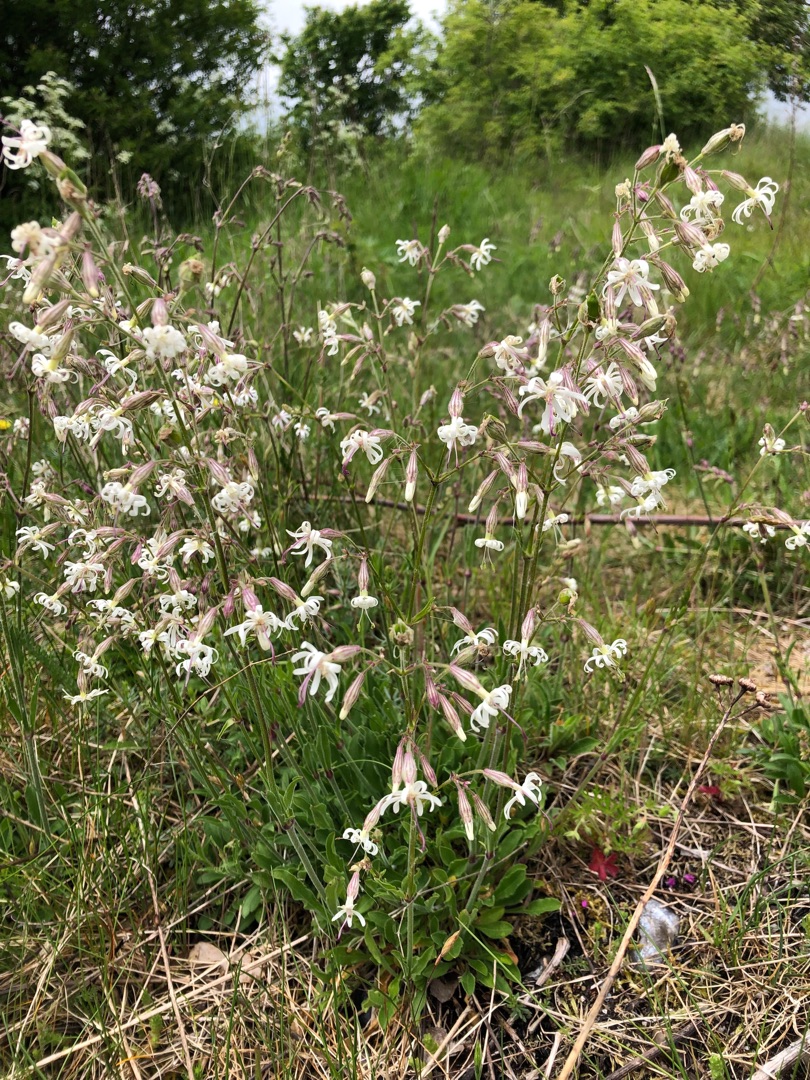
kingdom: Plantae
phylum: Tracheophyta
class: Magnoliopsida
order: Caryophyllales
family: Caryophyllaceae
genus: Silene
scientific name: Silene nutans
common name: Nikkende limurt
